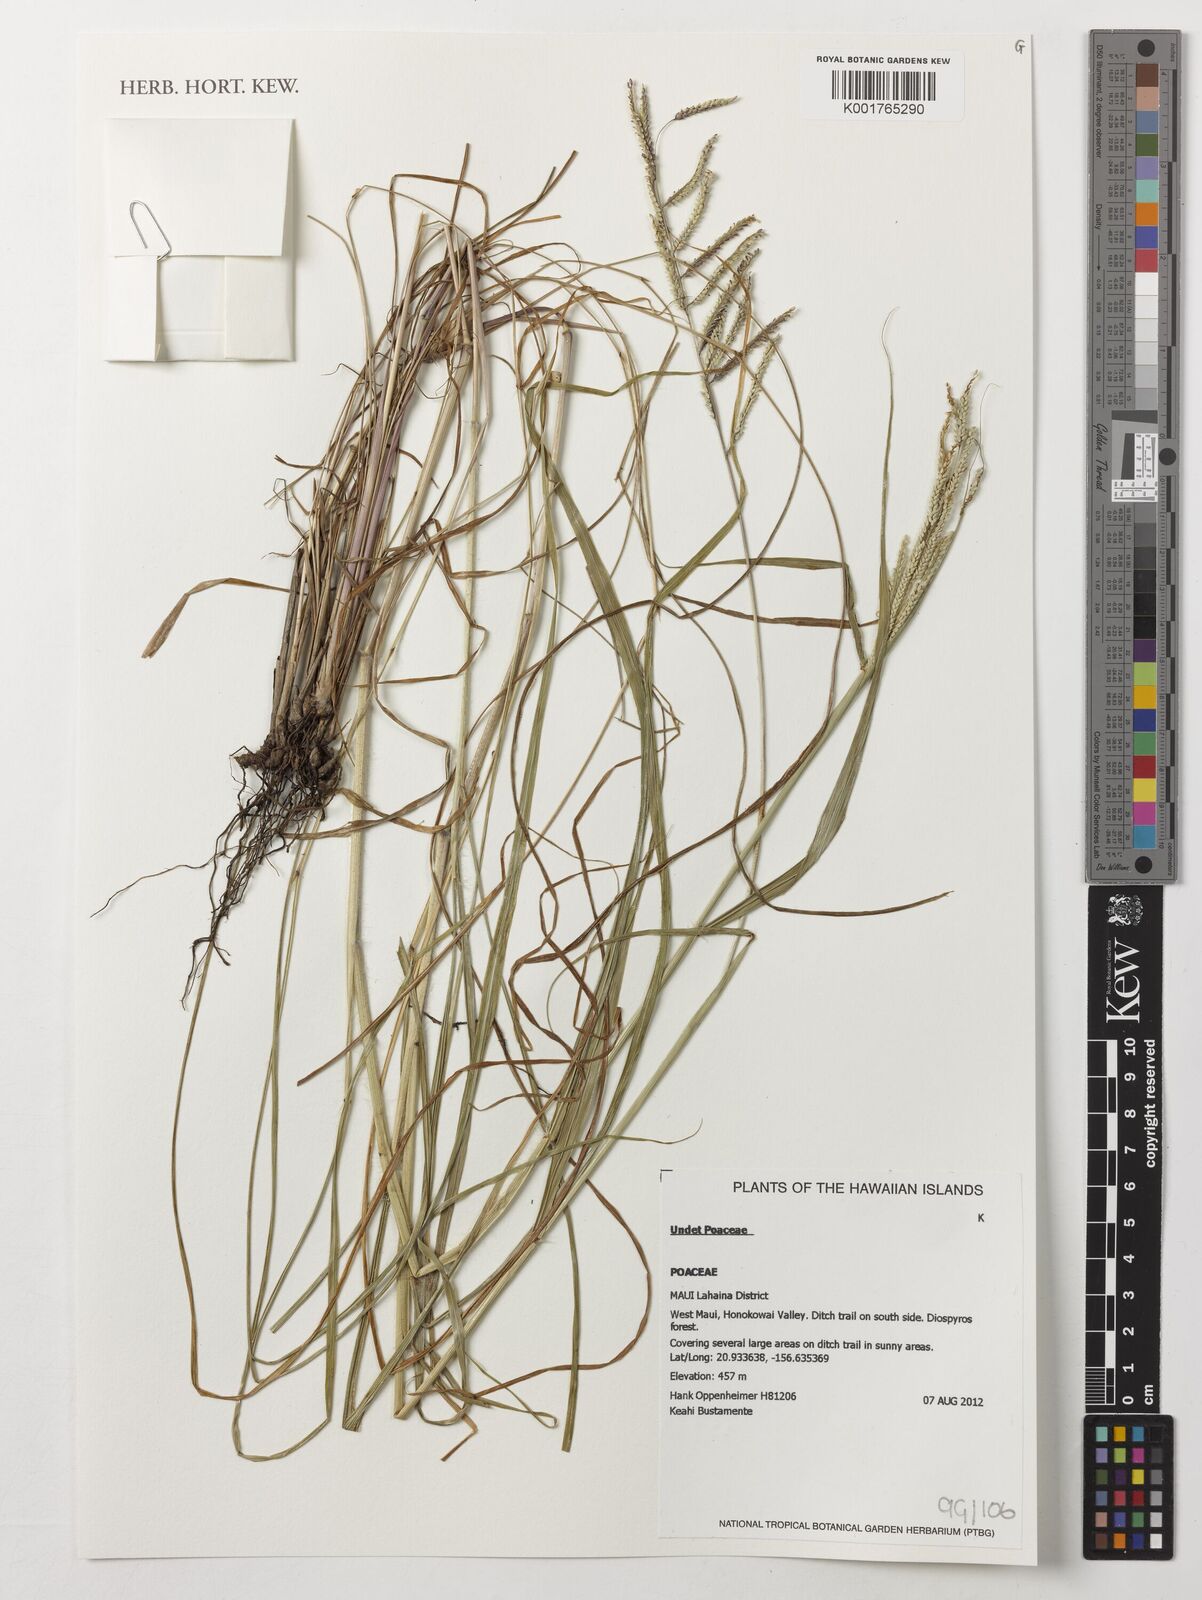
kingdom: Plantae
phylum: Tracheophyta
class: Liliopsida
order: Poales
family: Poaceae
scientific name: Poaceae
